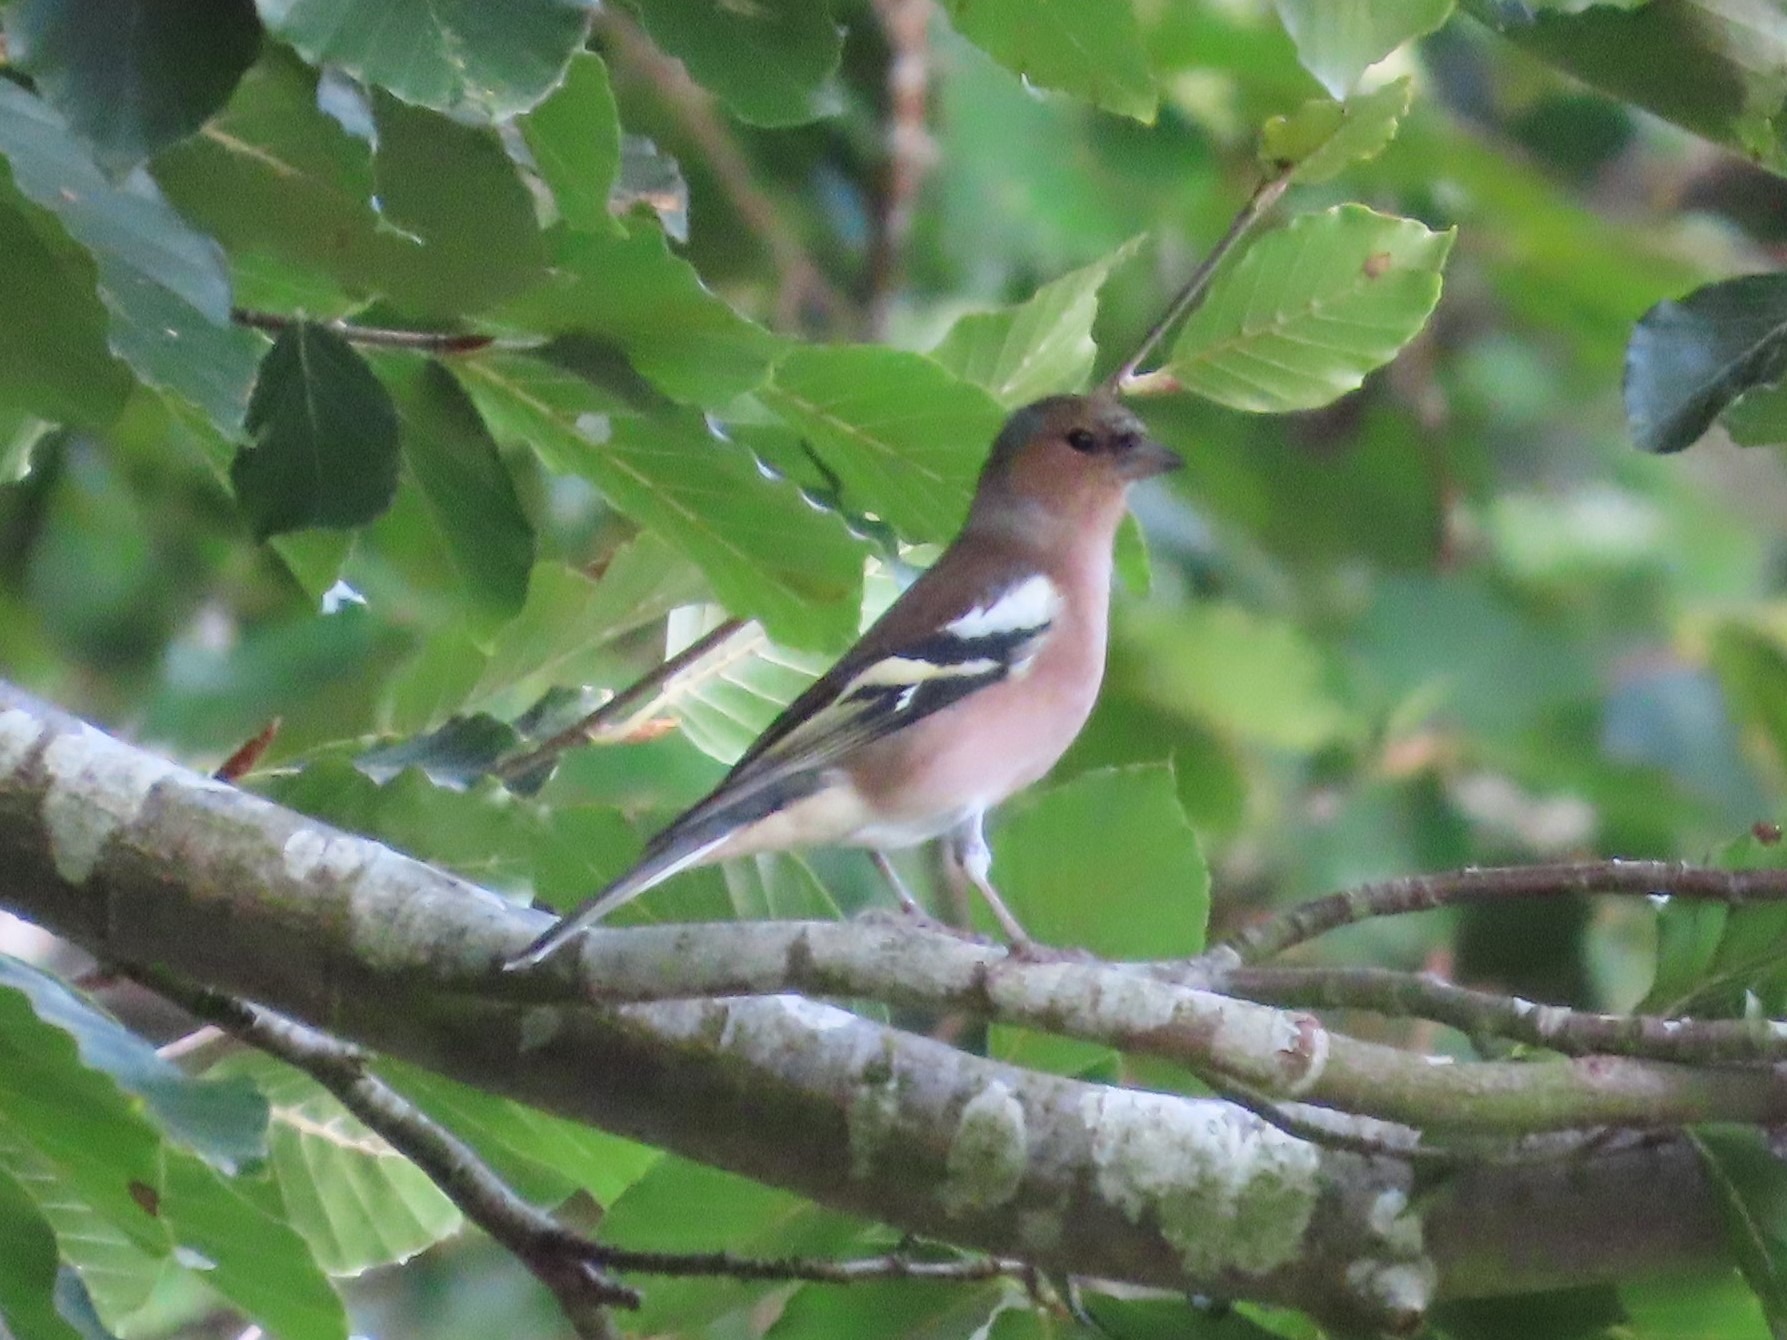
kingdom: Animalia
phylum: Chordata
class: Aves
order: Passeriformes
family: Fringillidae
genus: Fringilla
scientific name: Fringilla coelebs
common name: Bogfinke
